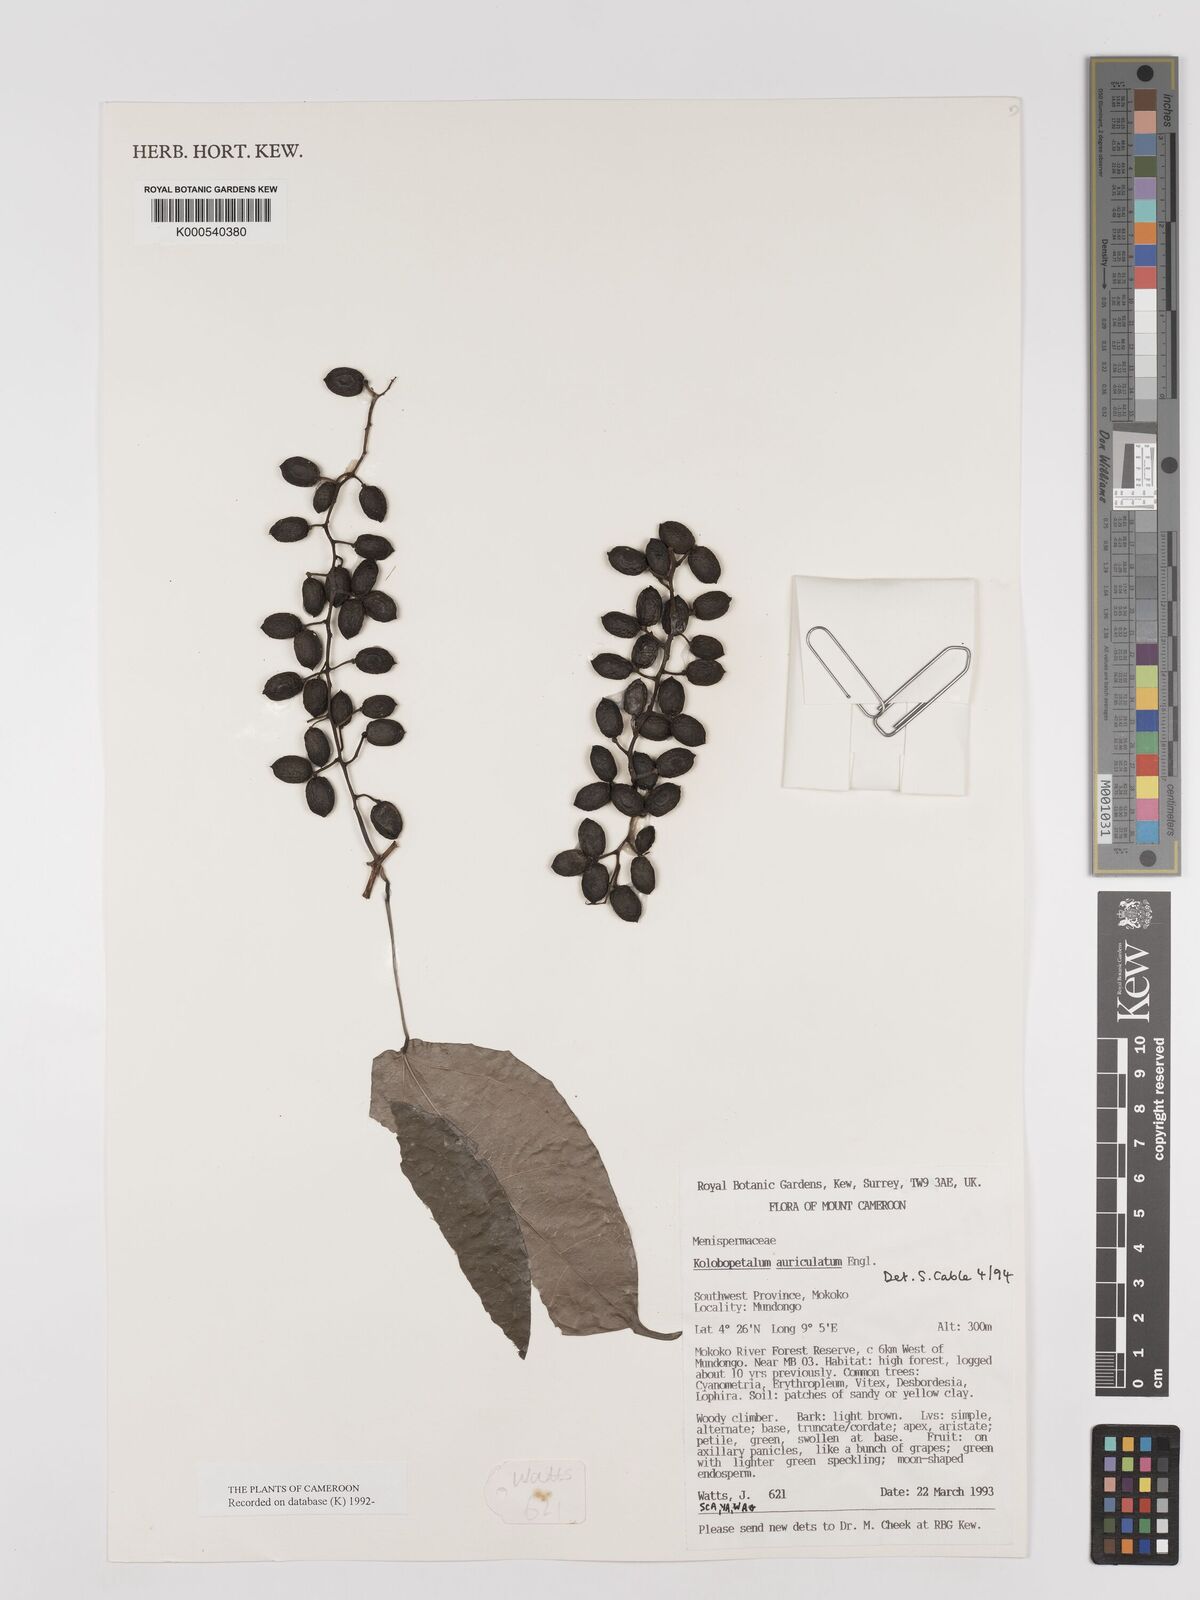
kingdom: Plantae
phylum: Tracheophyta
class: Magnoliopsida
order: Ranunculales
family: Menispermaceae
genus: Kolobopetalum
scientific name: Kolobopetalum auriculatum
